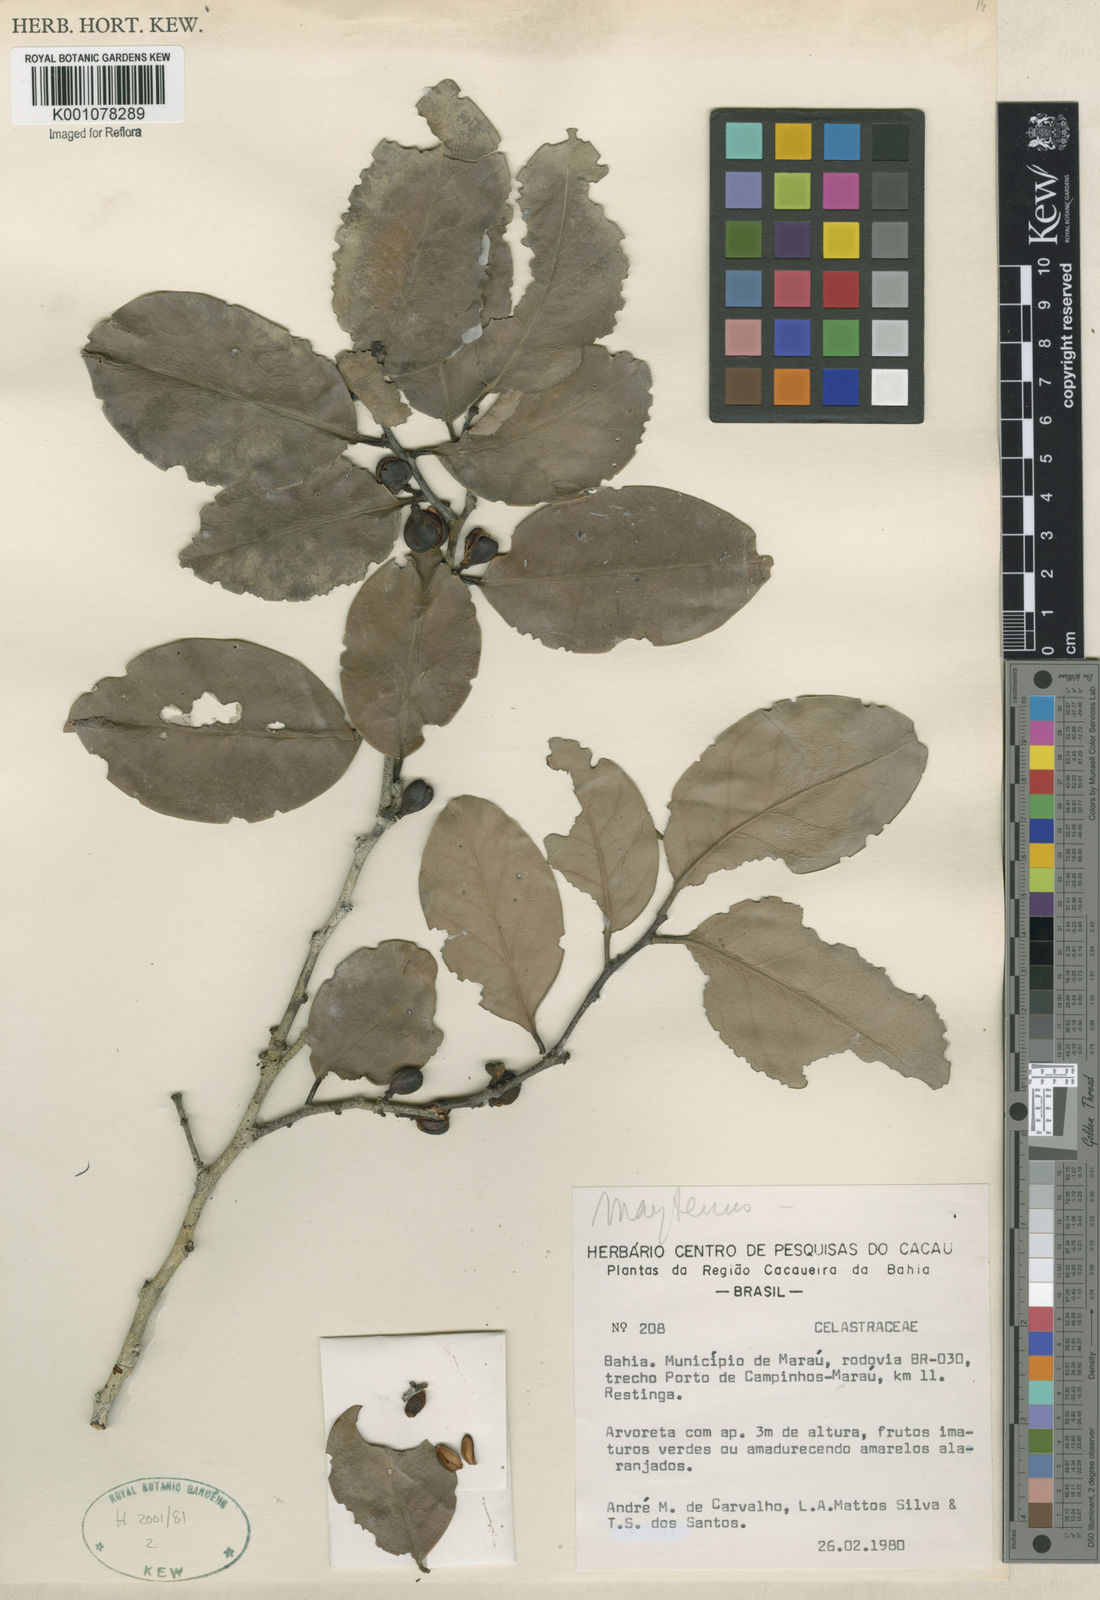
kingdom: Plantae
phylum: Tracheophyta
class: Magnoliopsida
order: Celastrales
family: Celastraceae
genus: Maytenus
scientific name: Maytenus
